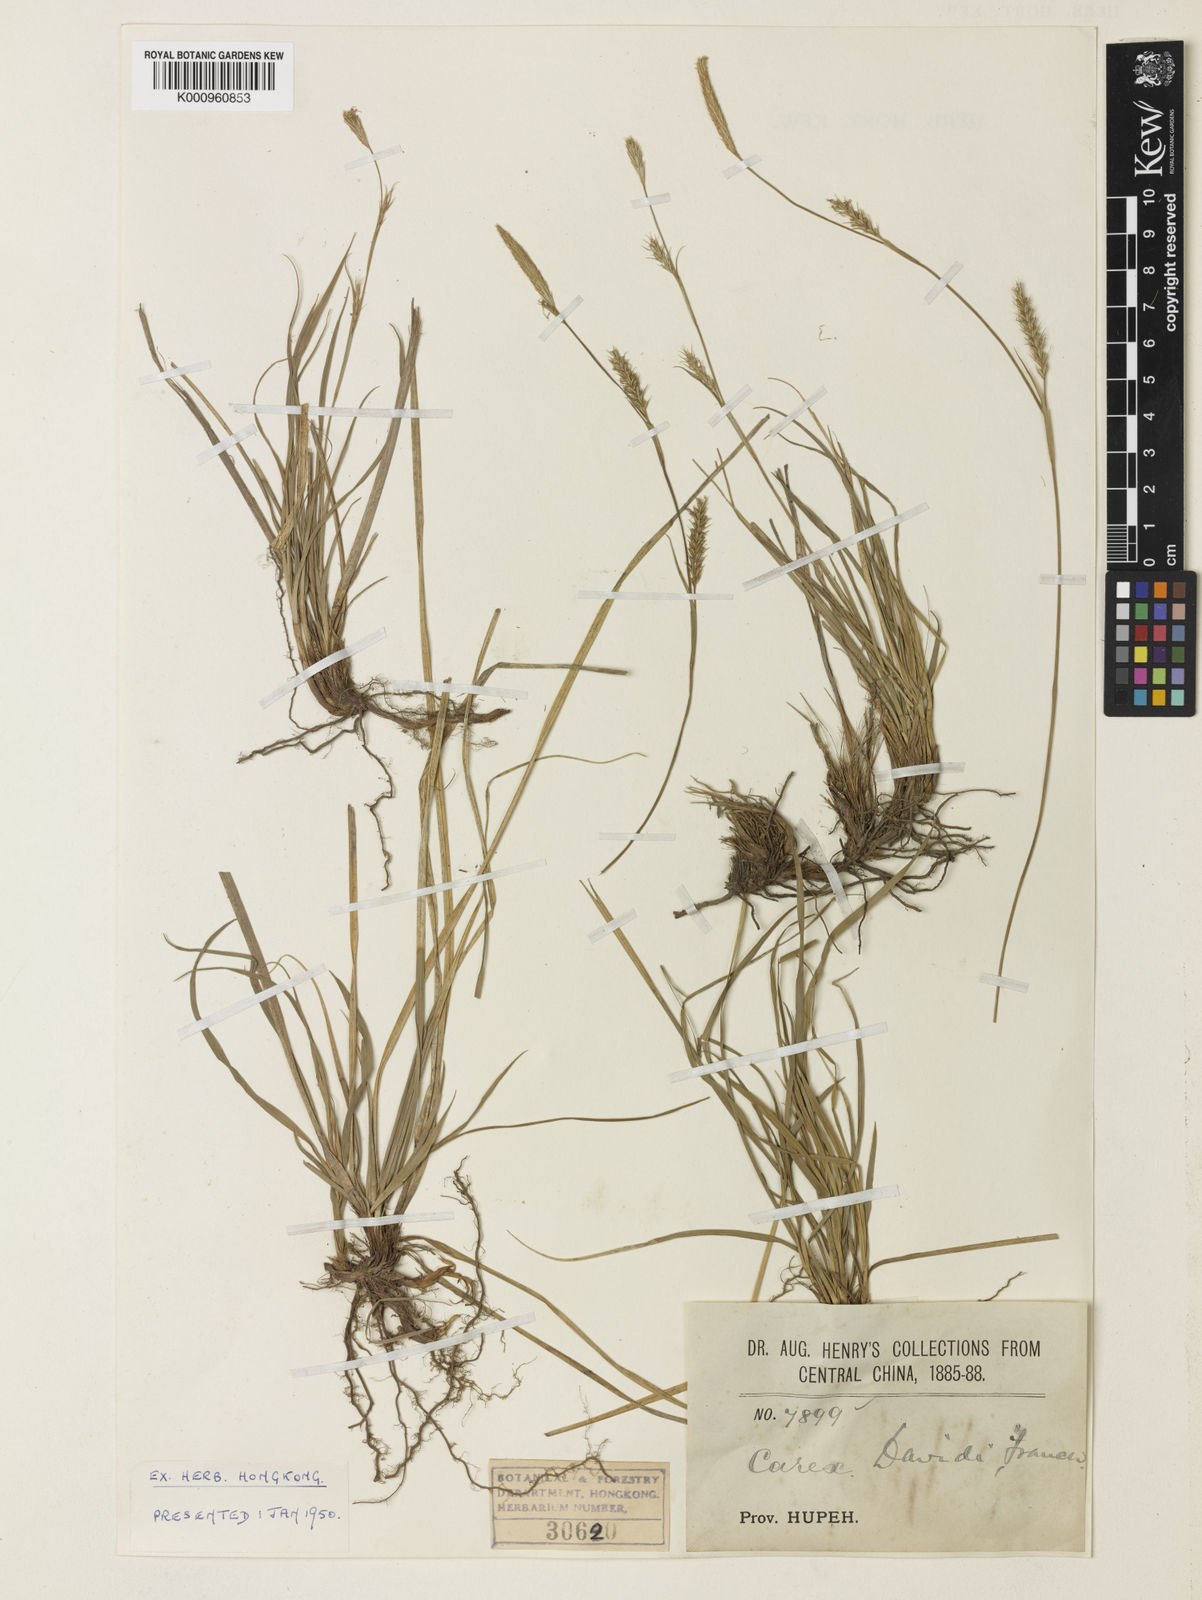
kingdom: Plantae
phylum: Tracheophyta
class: Liliopsida
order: Poales
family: Cyperaceae
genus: Carex
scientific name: Carex davidii
